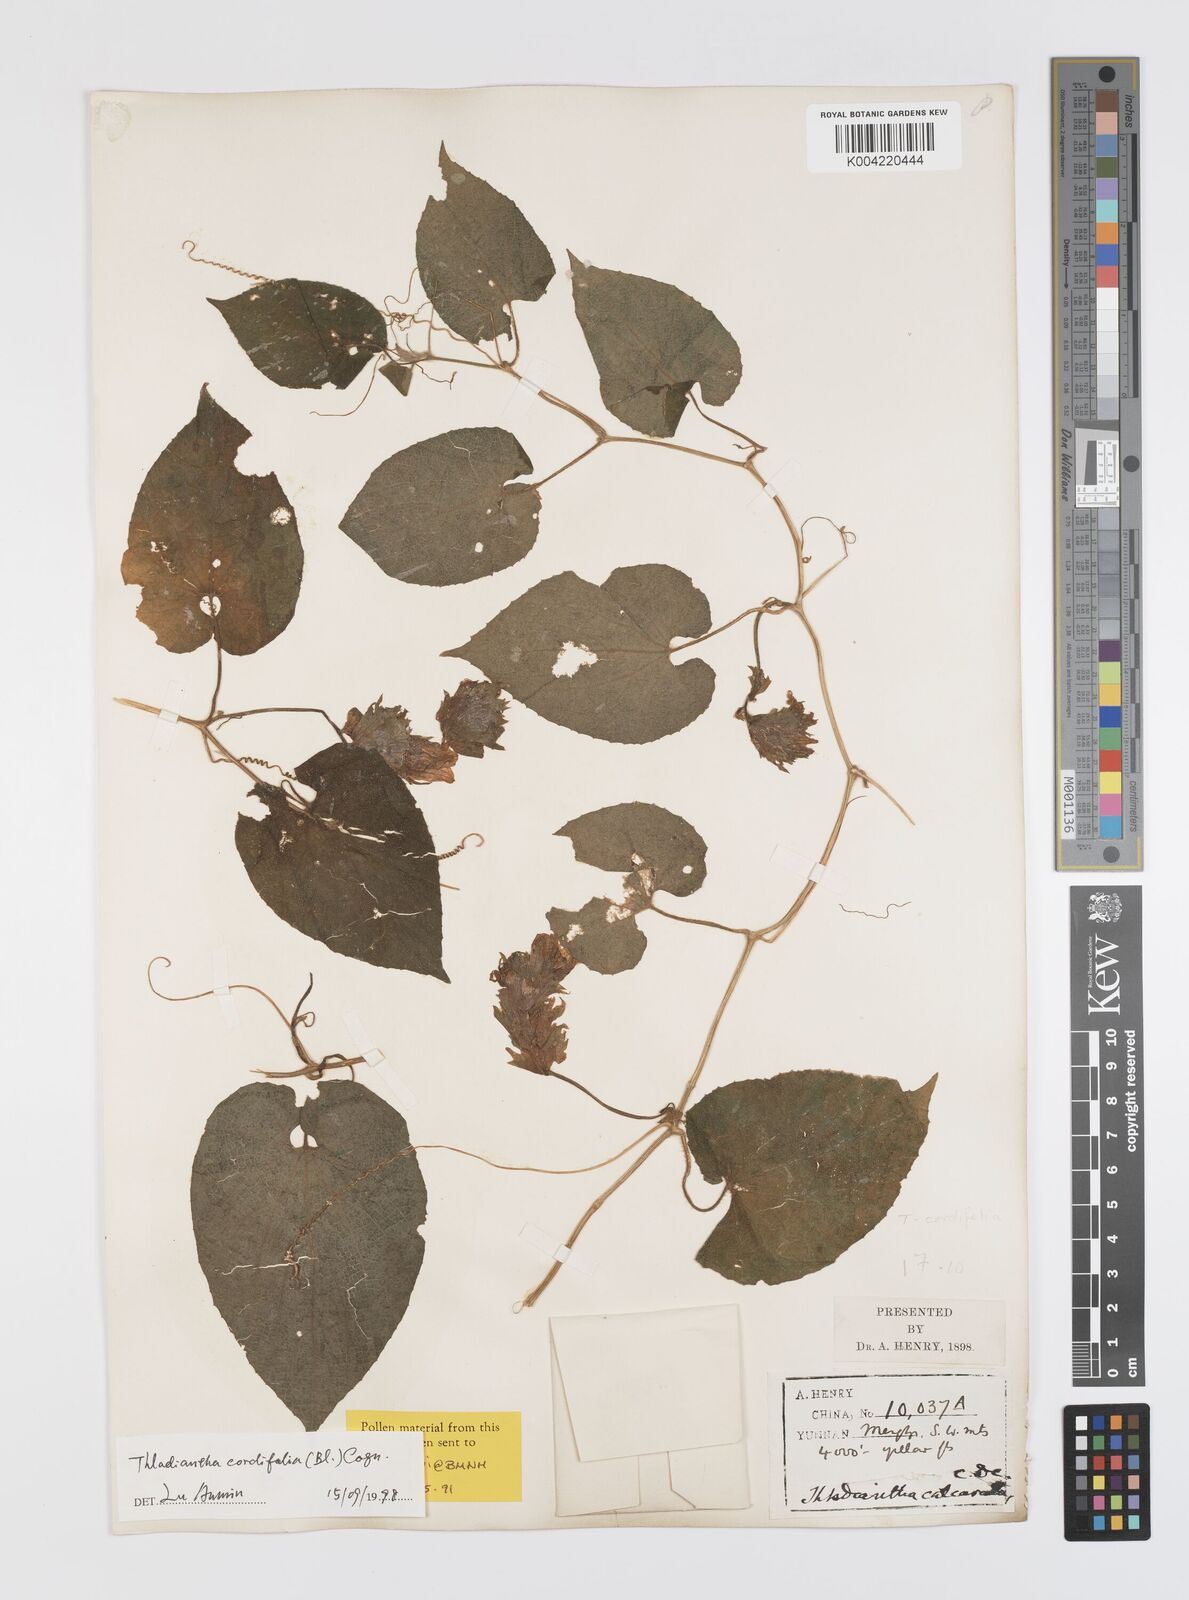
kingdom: Plantae
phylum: Tracheophyta
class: Magnoliopsida
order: Cucurbitales
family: Cucurbitaceae
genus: Thladiantha
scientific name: Thladiantha cordifolia
